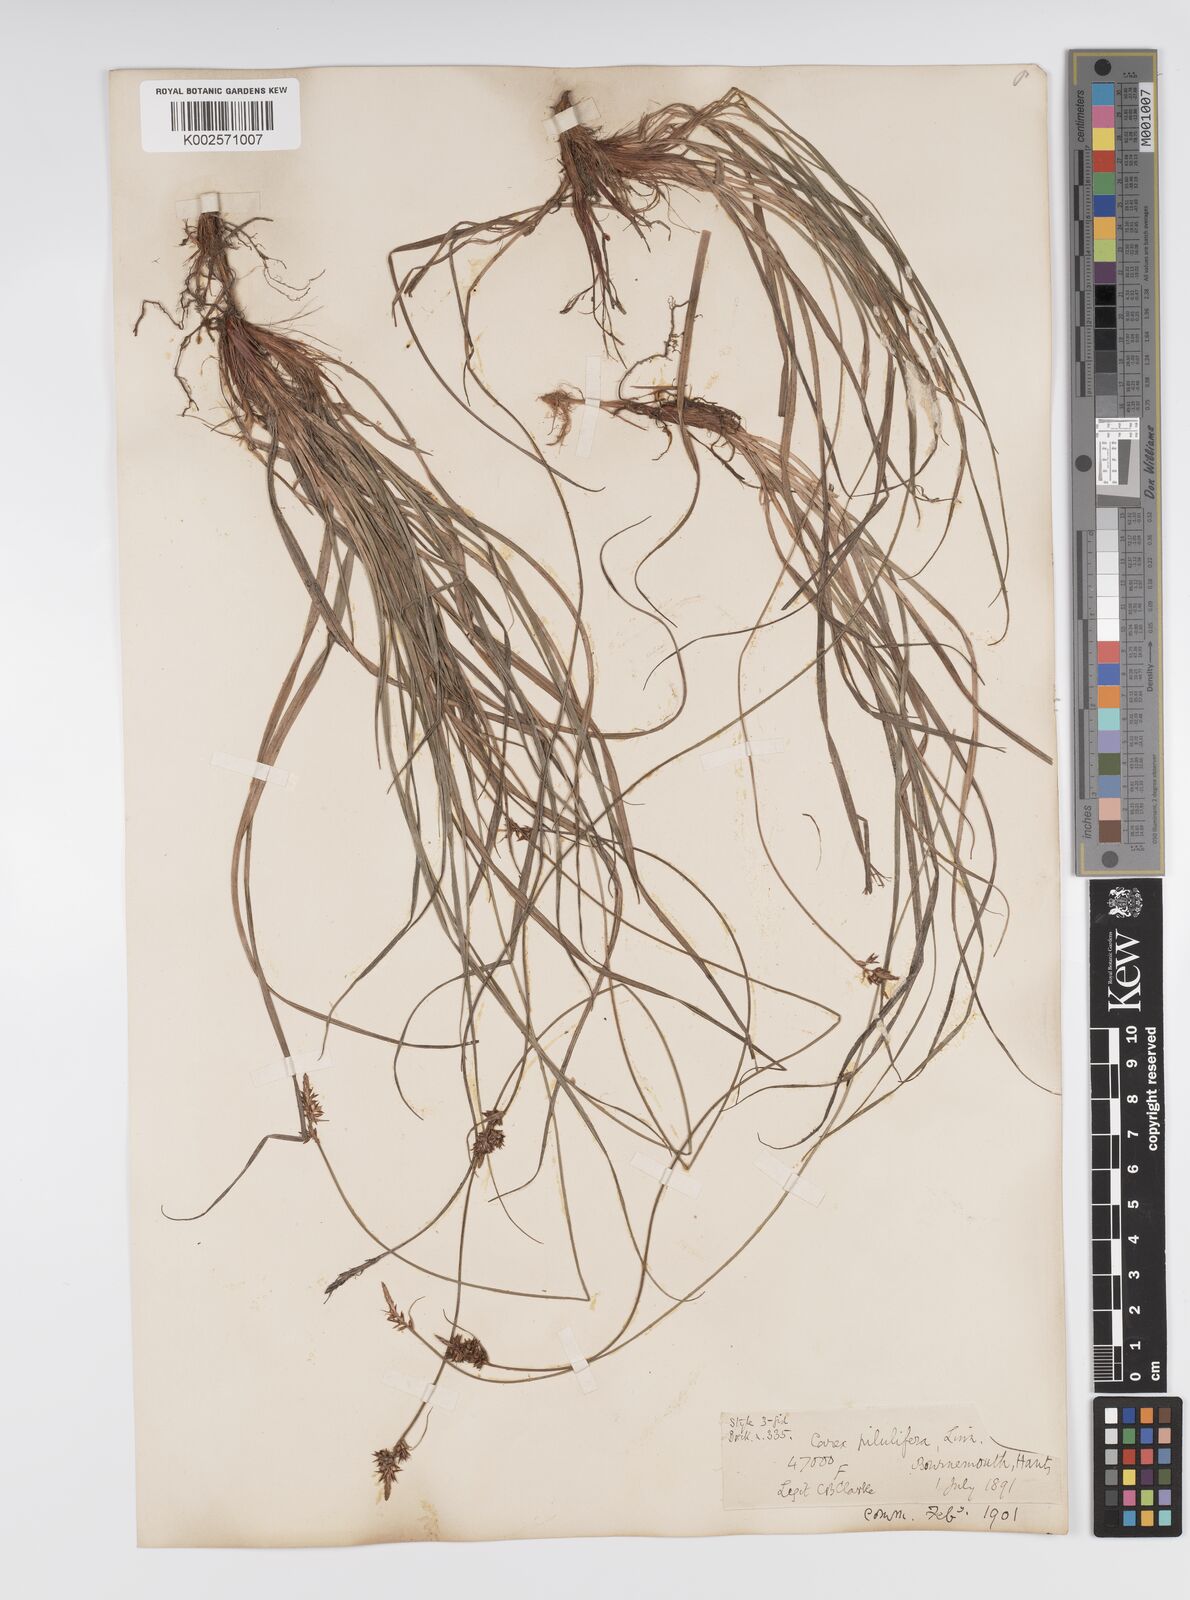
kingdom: Plantae
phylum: Tracheophyta
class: Liliopsida
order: Poales
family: Cyperaceae
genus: Carex
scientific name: Carex praecox
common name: Early sedge
